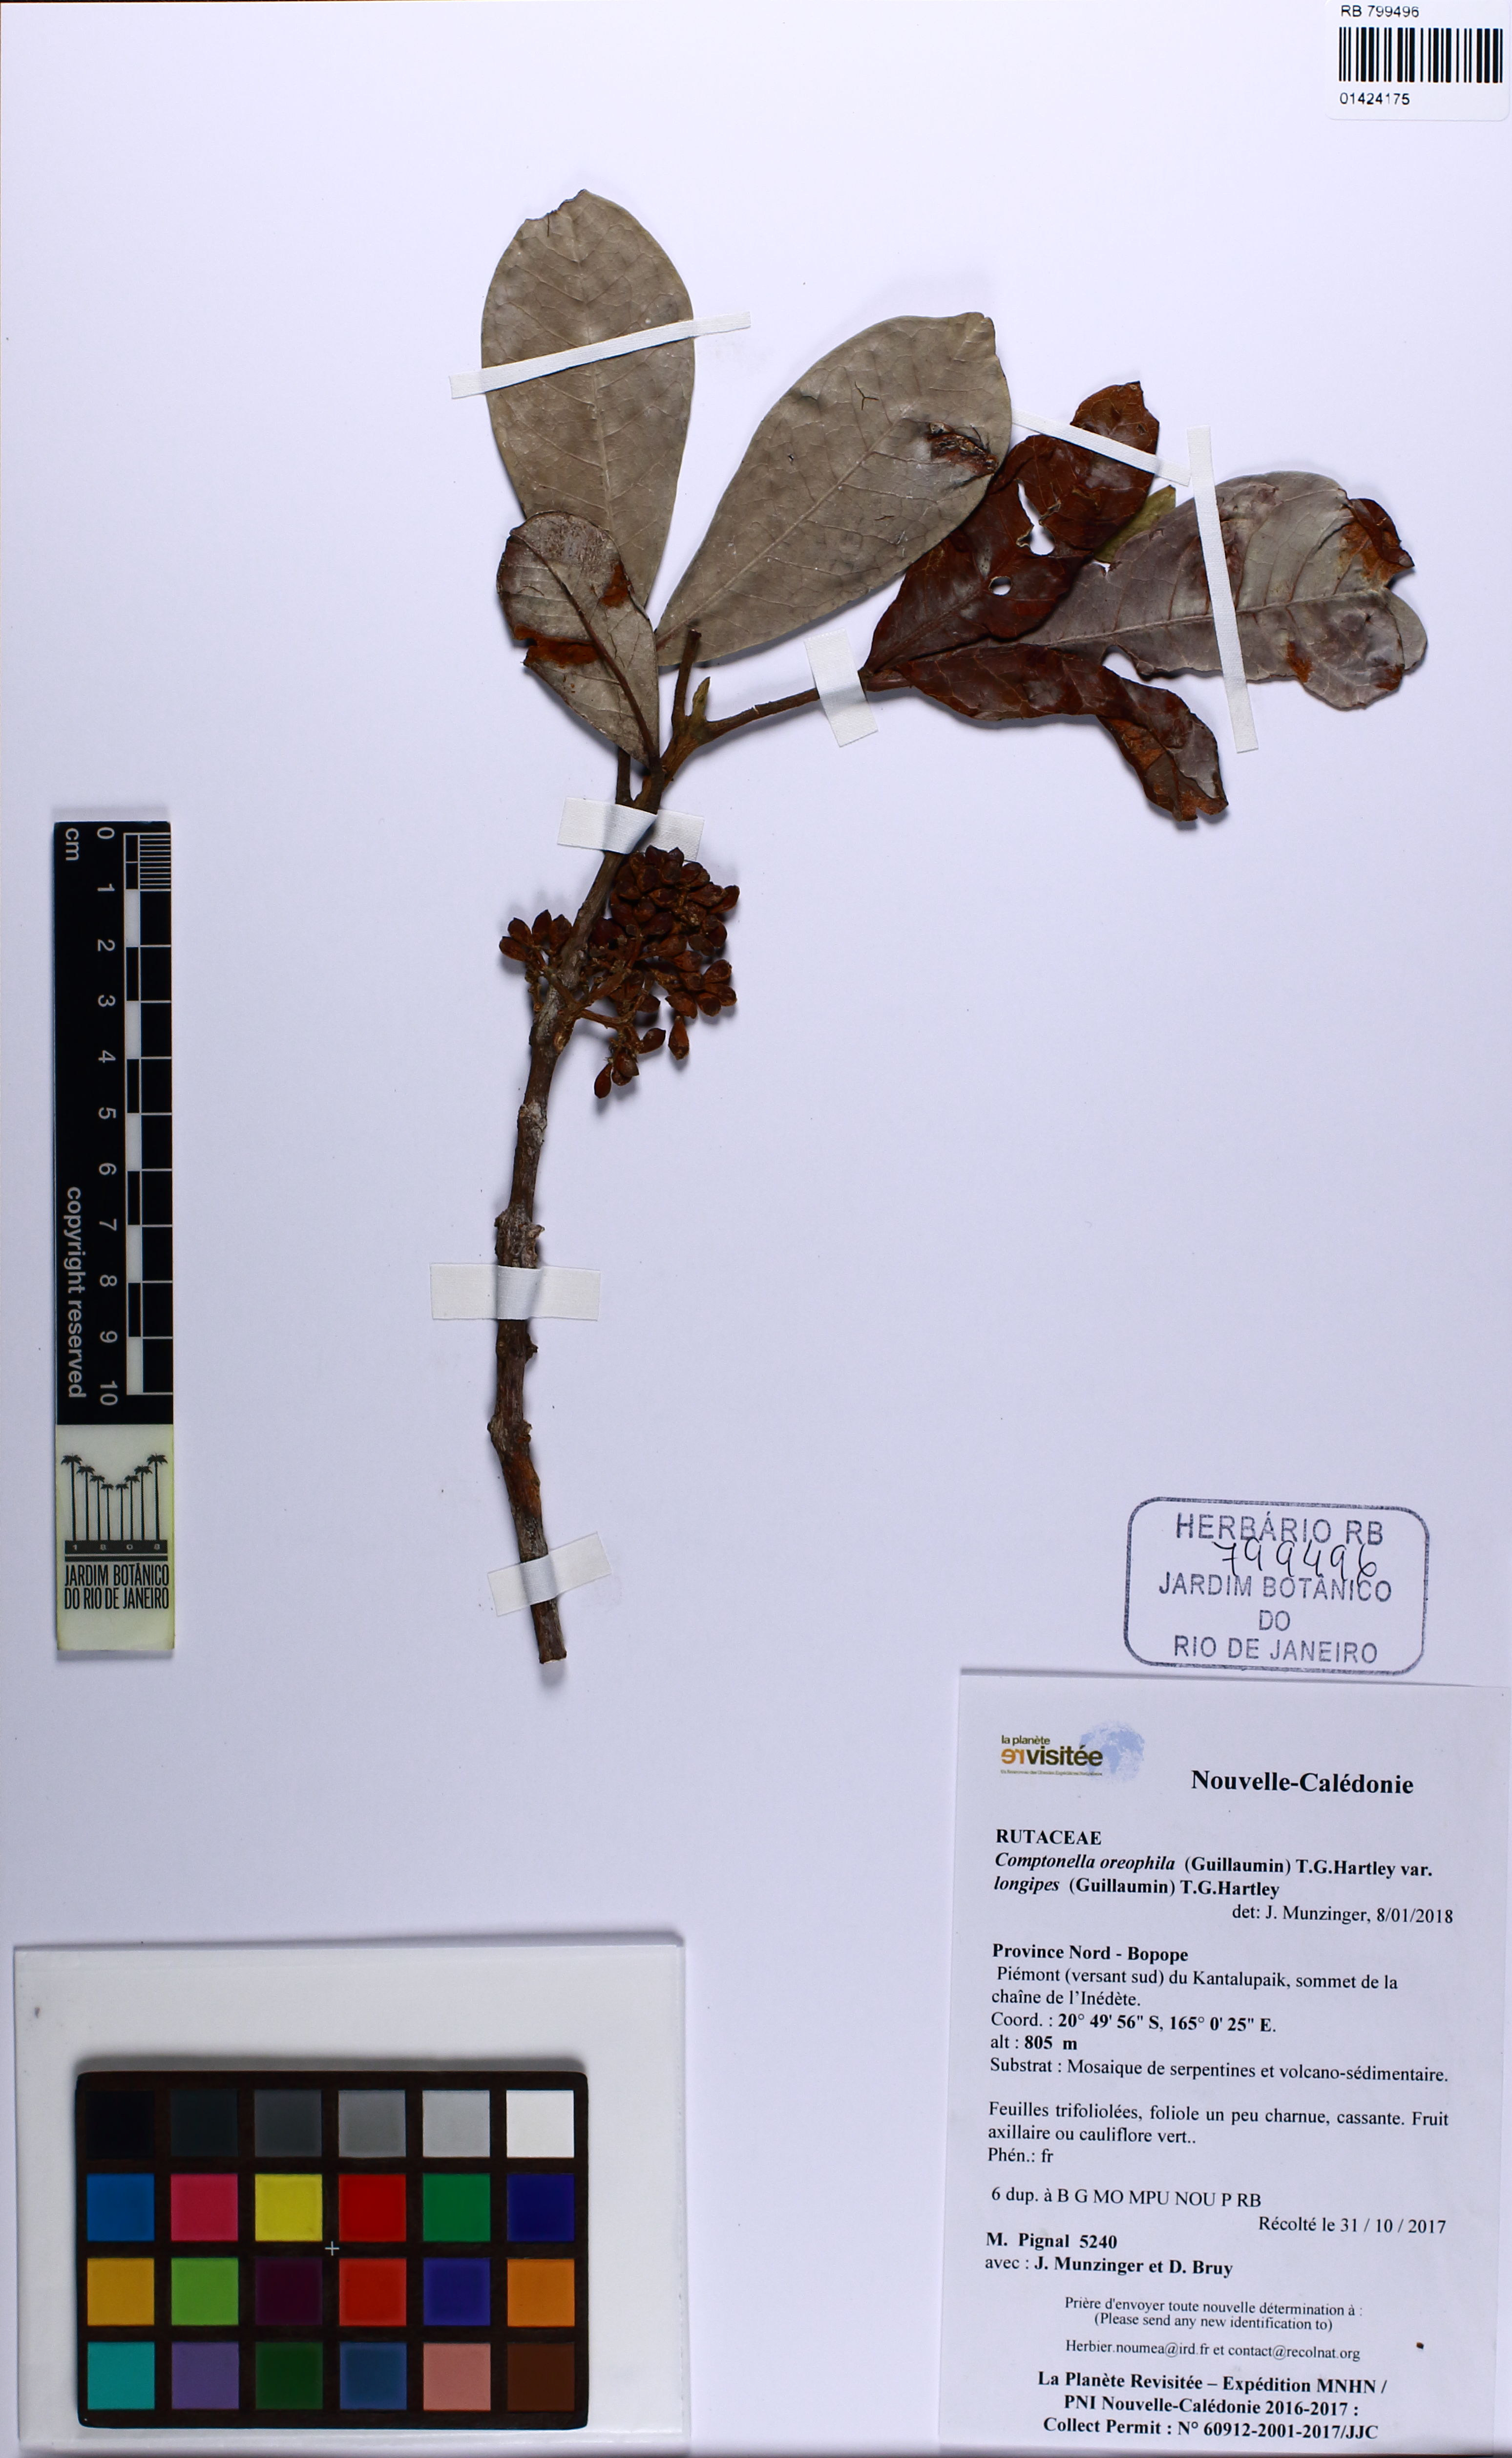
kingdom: Plantae
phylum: Tracheophyta
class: Magnoliopsida
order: Sapindales
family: Rutaceae
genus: Comptonella
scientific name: Comptonella oreophila
